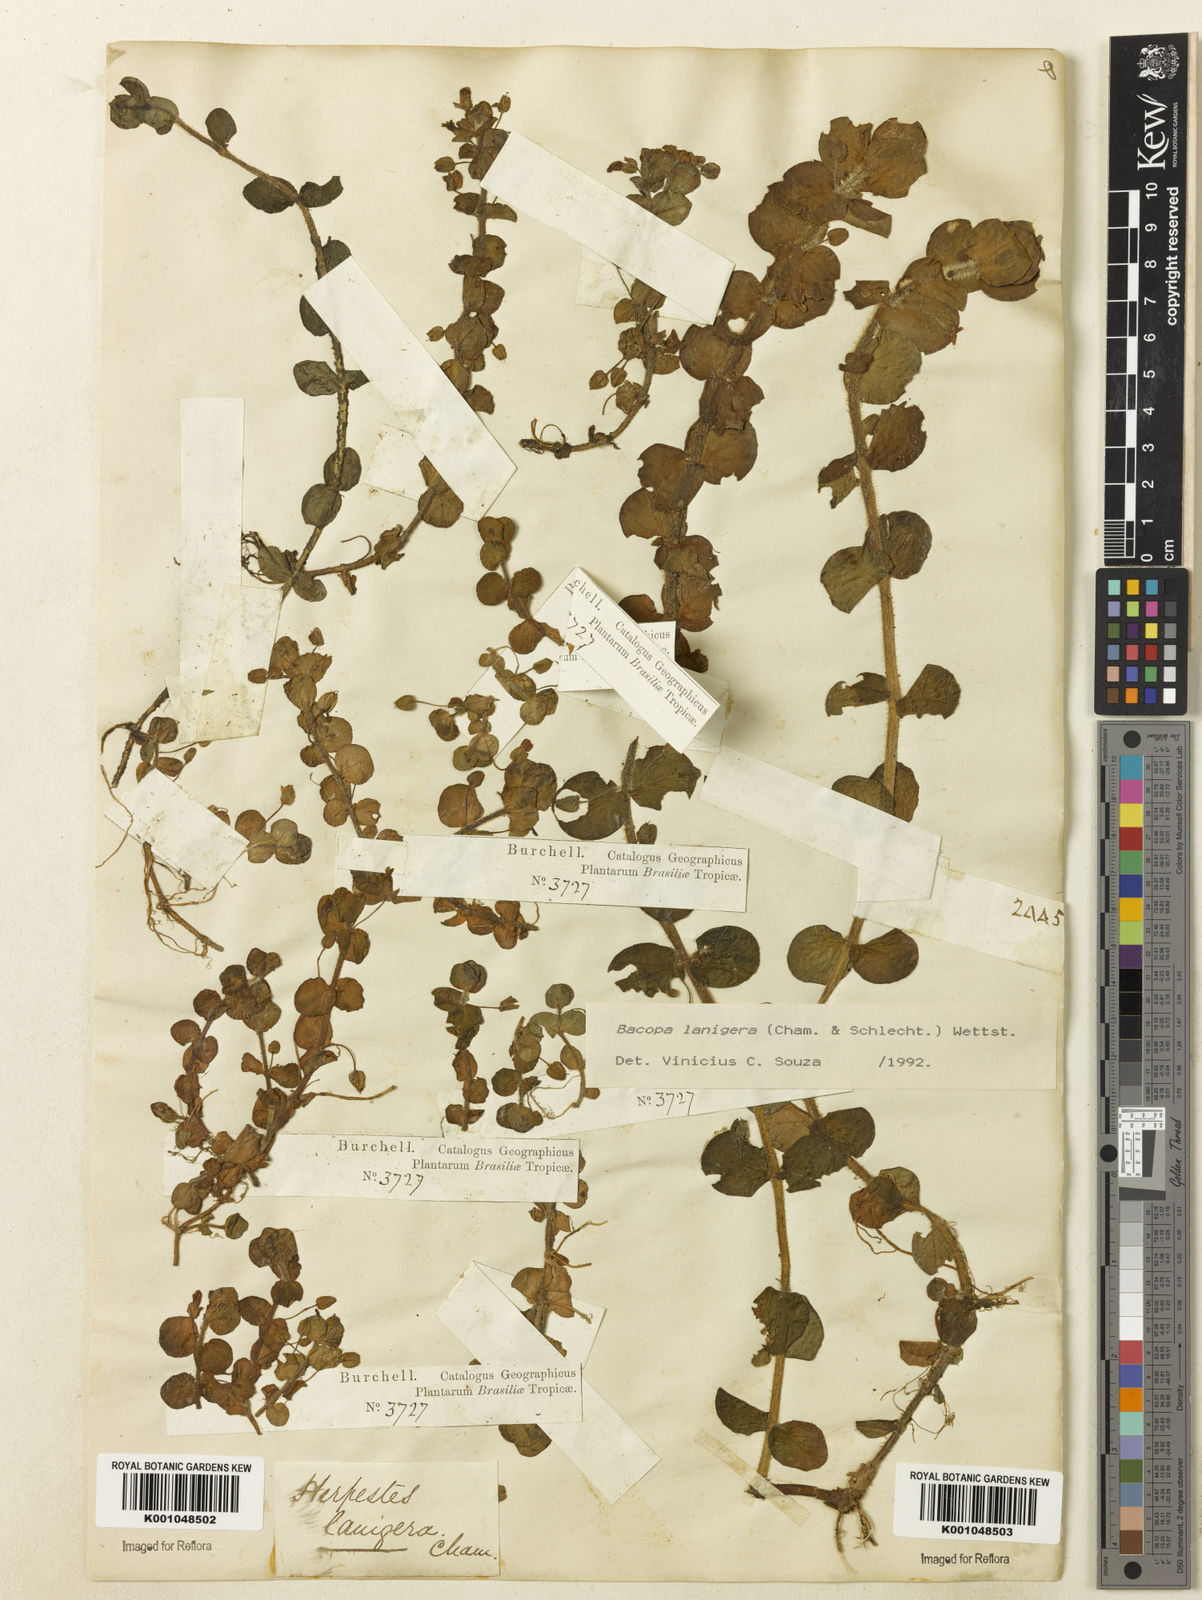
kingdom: Plantae
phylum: Tracheophyta
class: Magnoliopsida
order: Lamiales
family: Plantaginaceae
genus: Bacopa
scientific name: Bacopa lanigera
